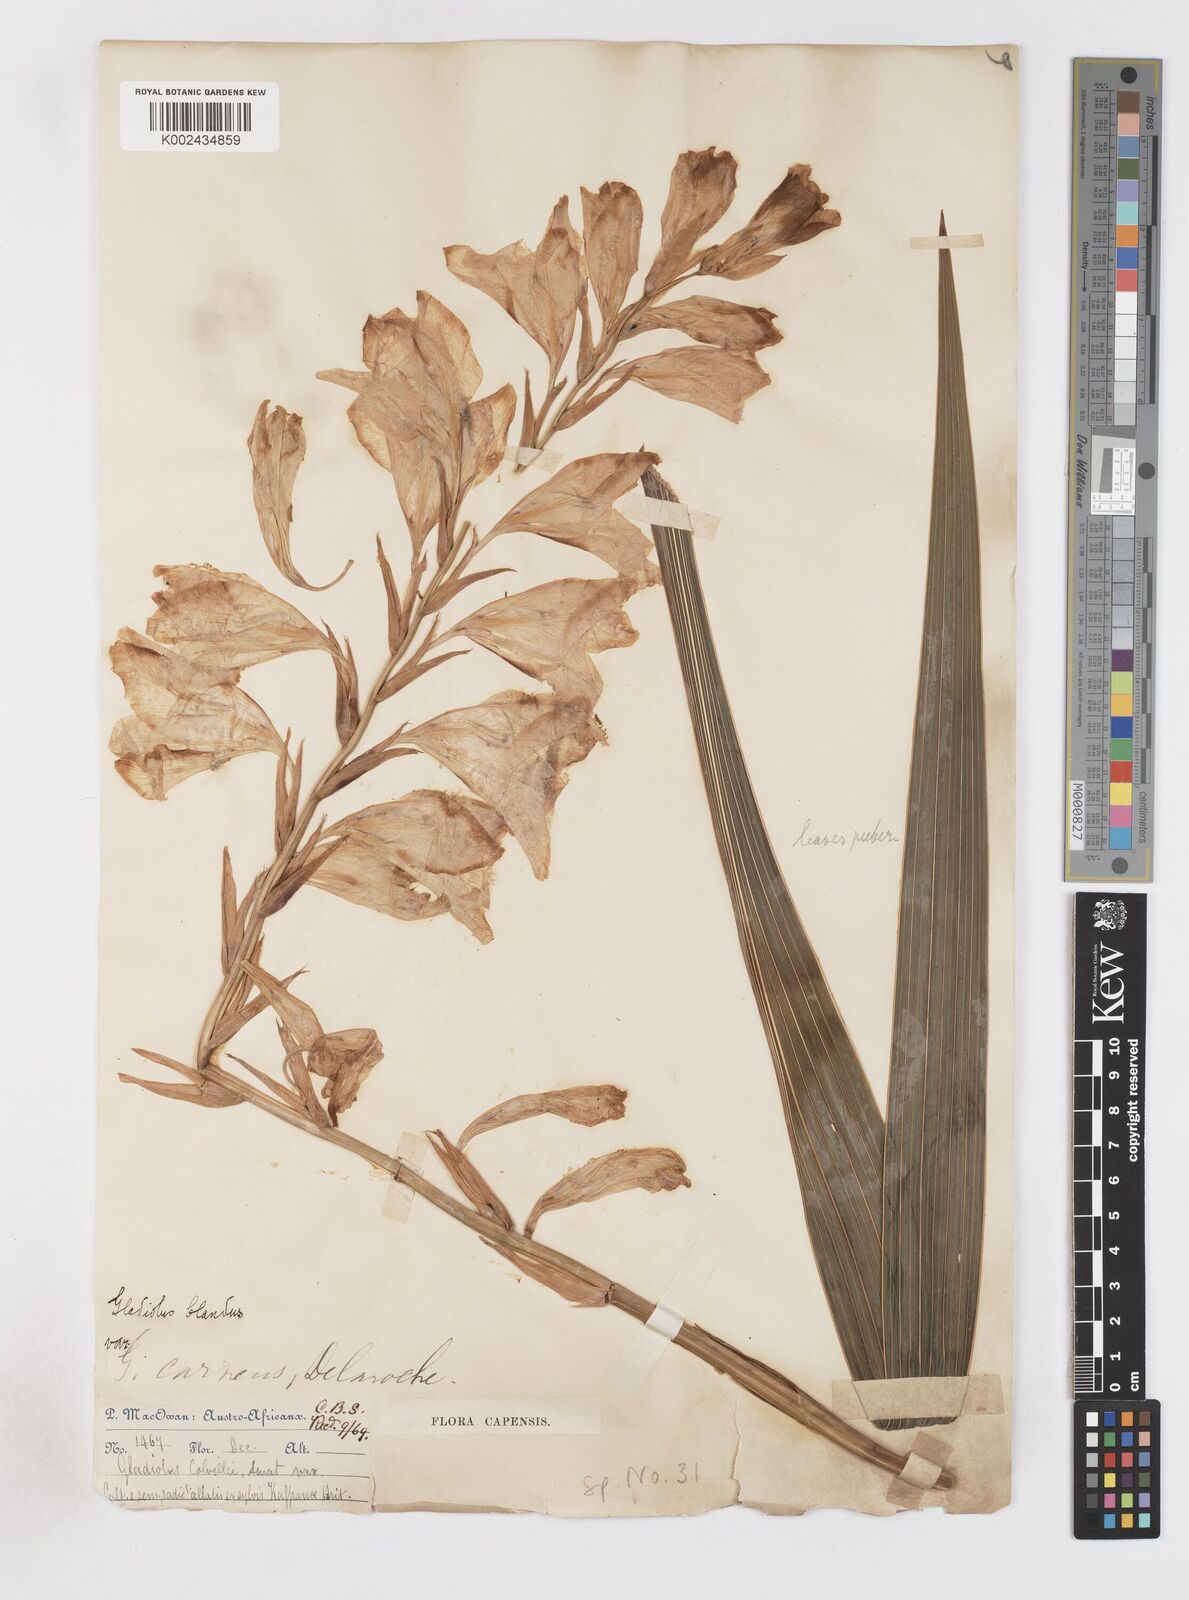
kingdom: Plantae
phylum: Tracheophyta
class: Liliopsida
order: Asparagales
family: Iridaceae
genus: Gladiolus
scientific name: Gladiolus oppositiflorus
